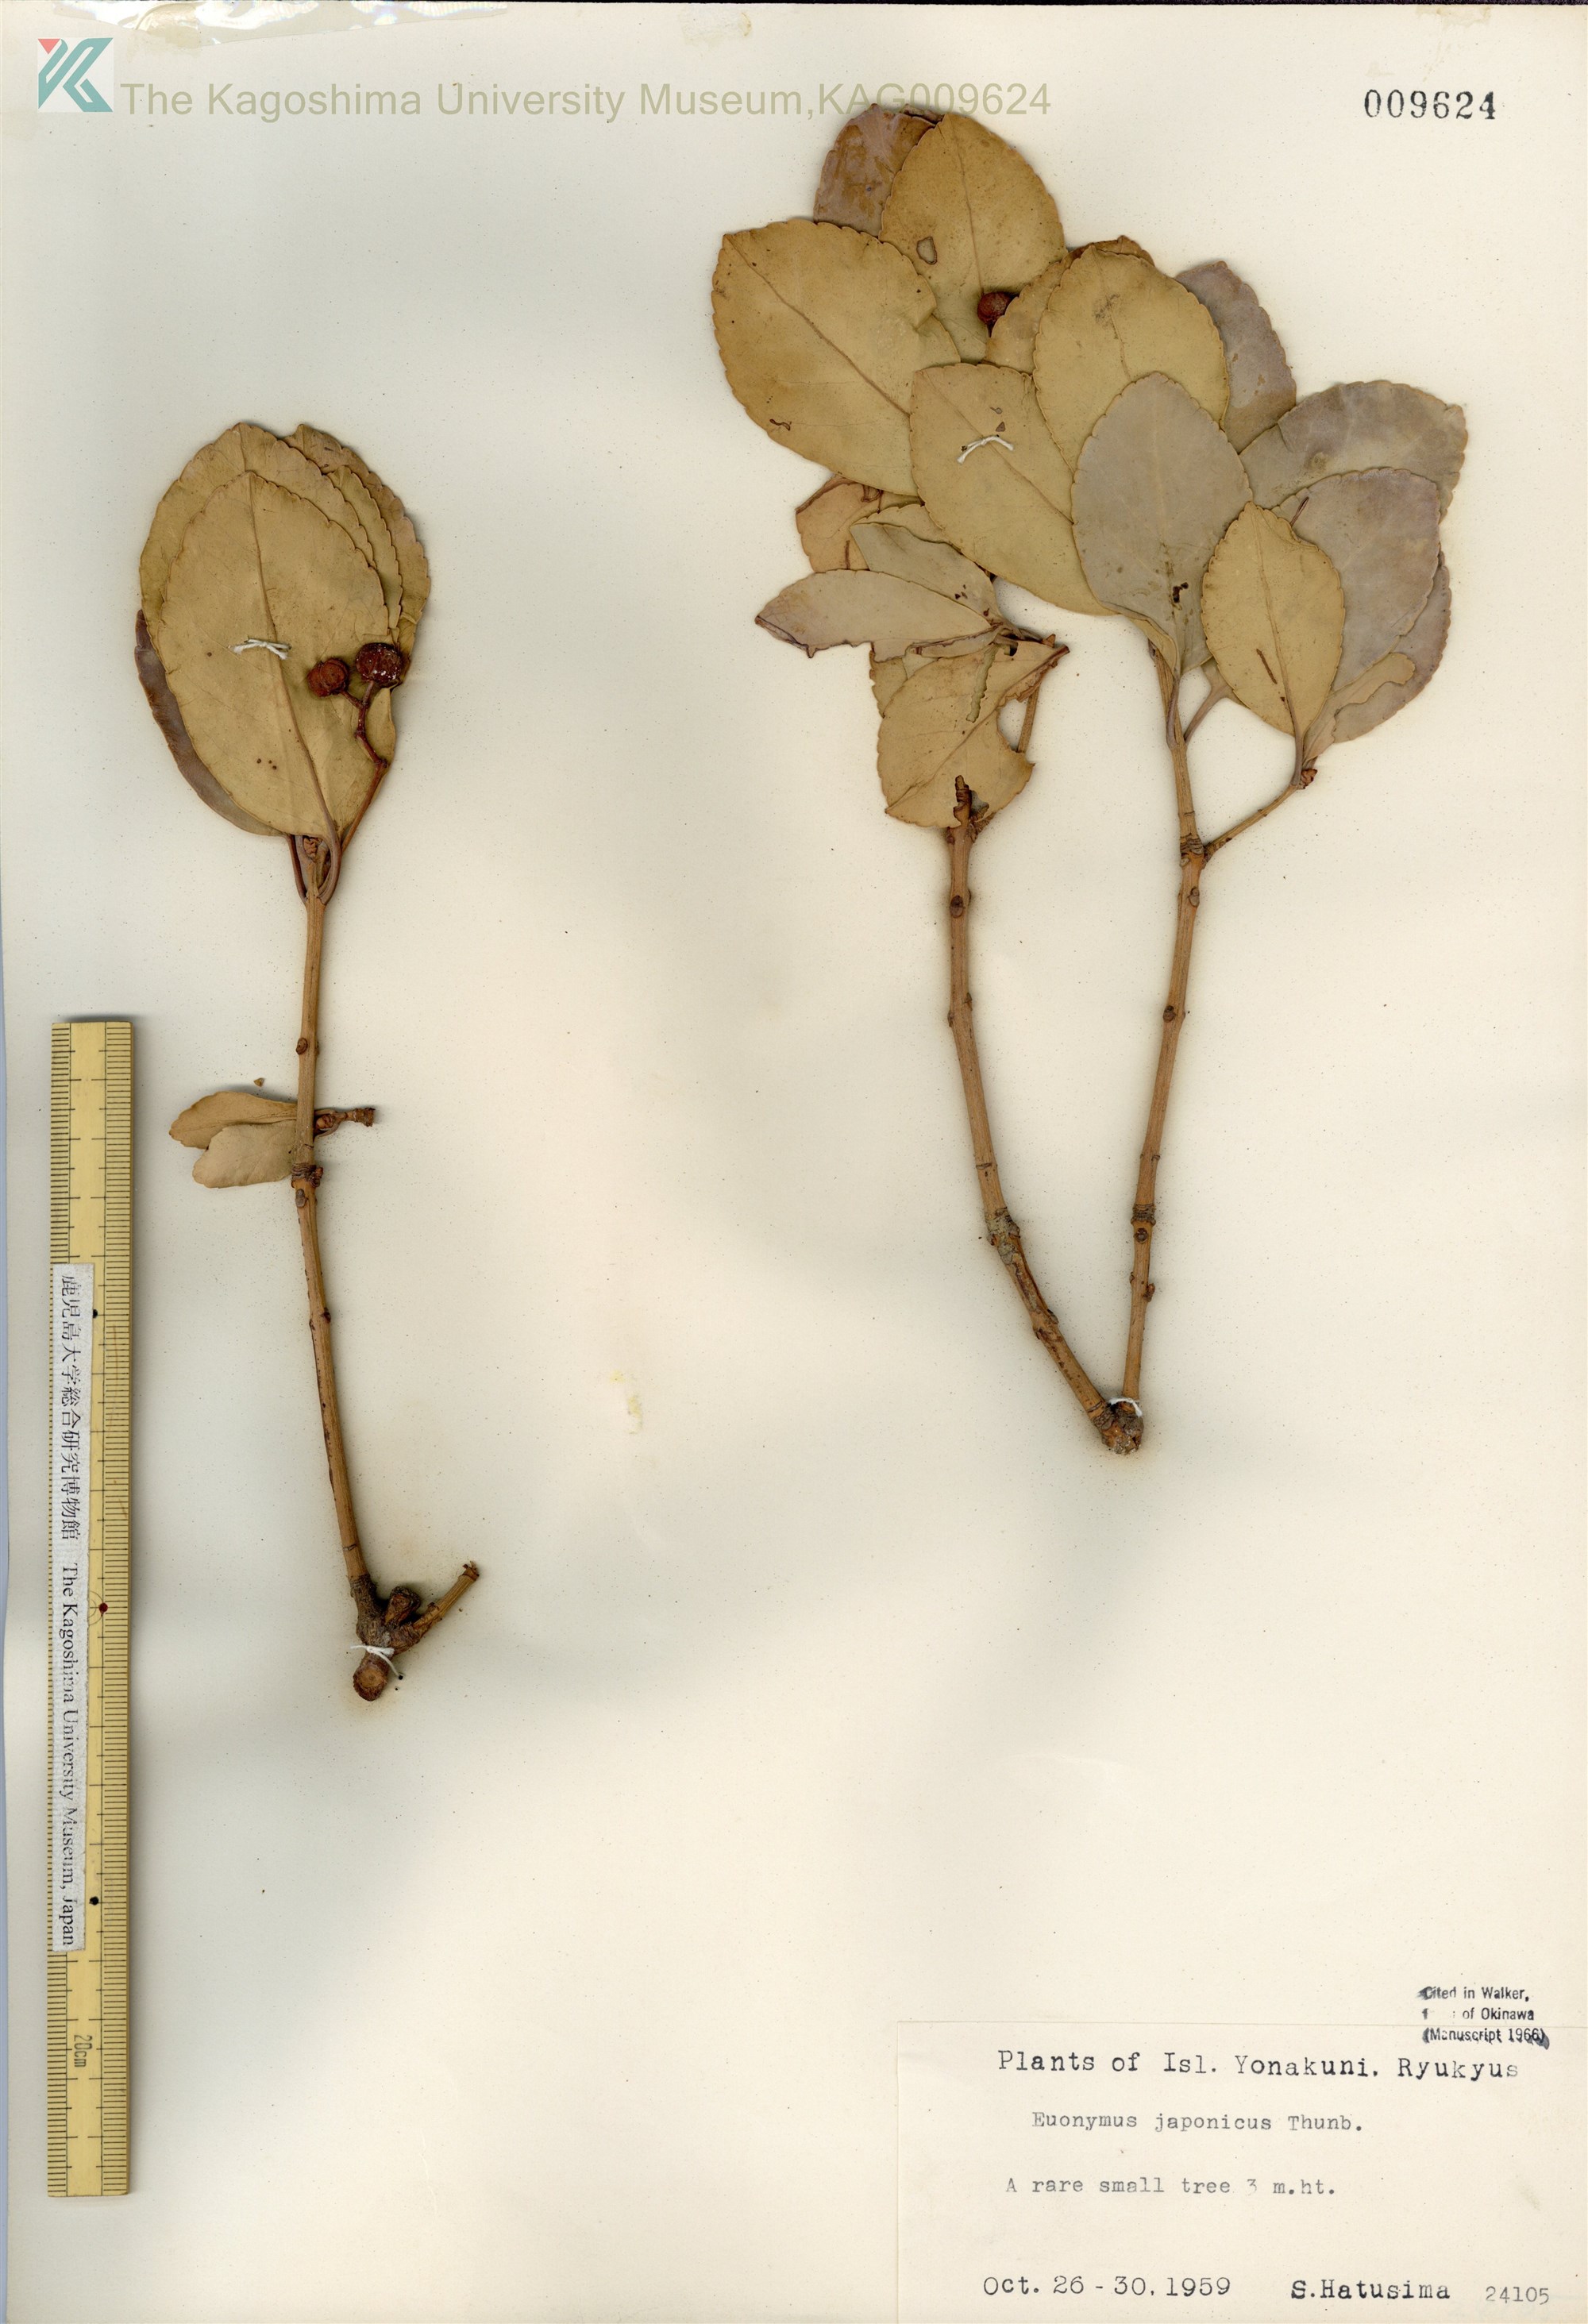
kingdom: Plantae
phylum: Tracheophyta
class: Magnoliopsida
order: Celastrales
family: Celastraceae
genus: Euonymus
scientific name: Euonymus japonicus
